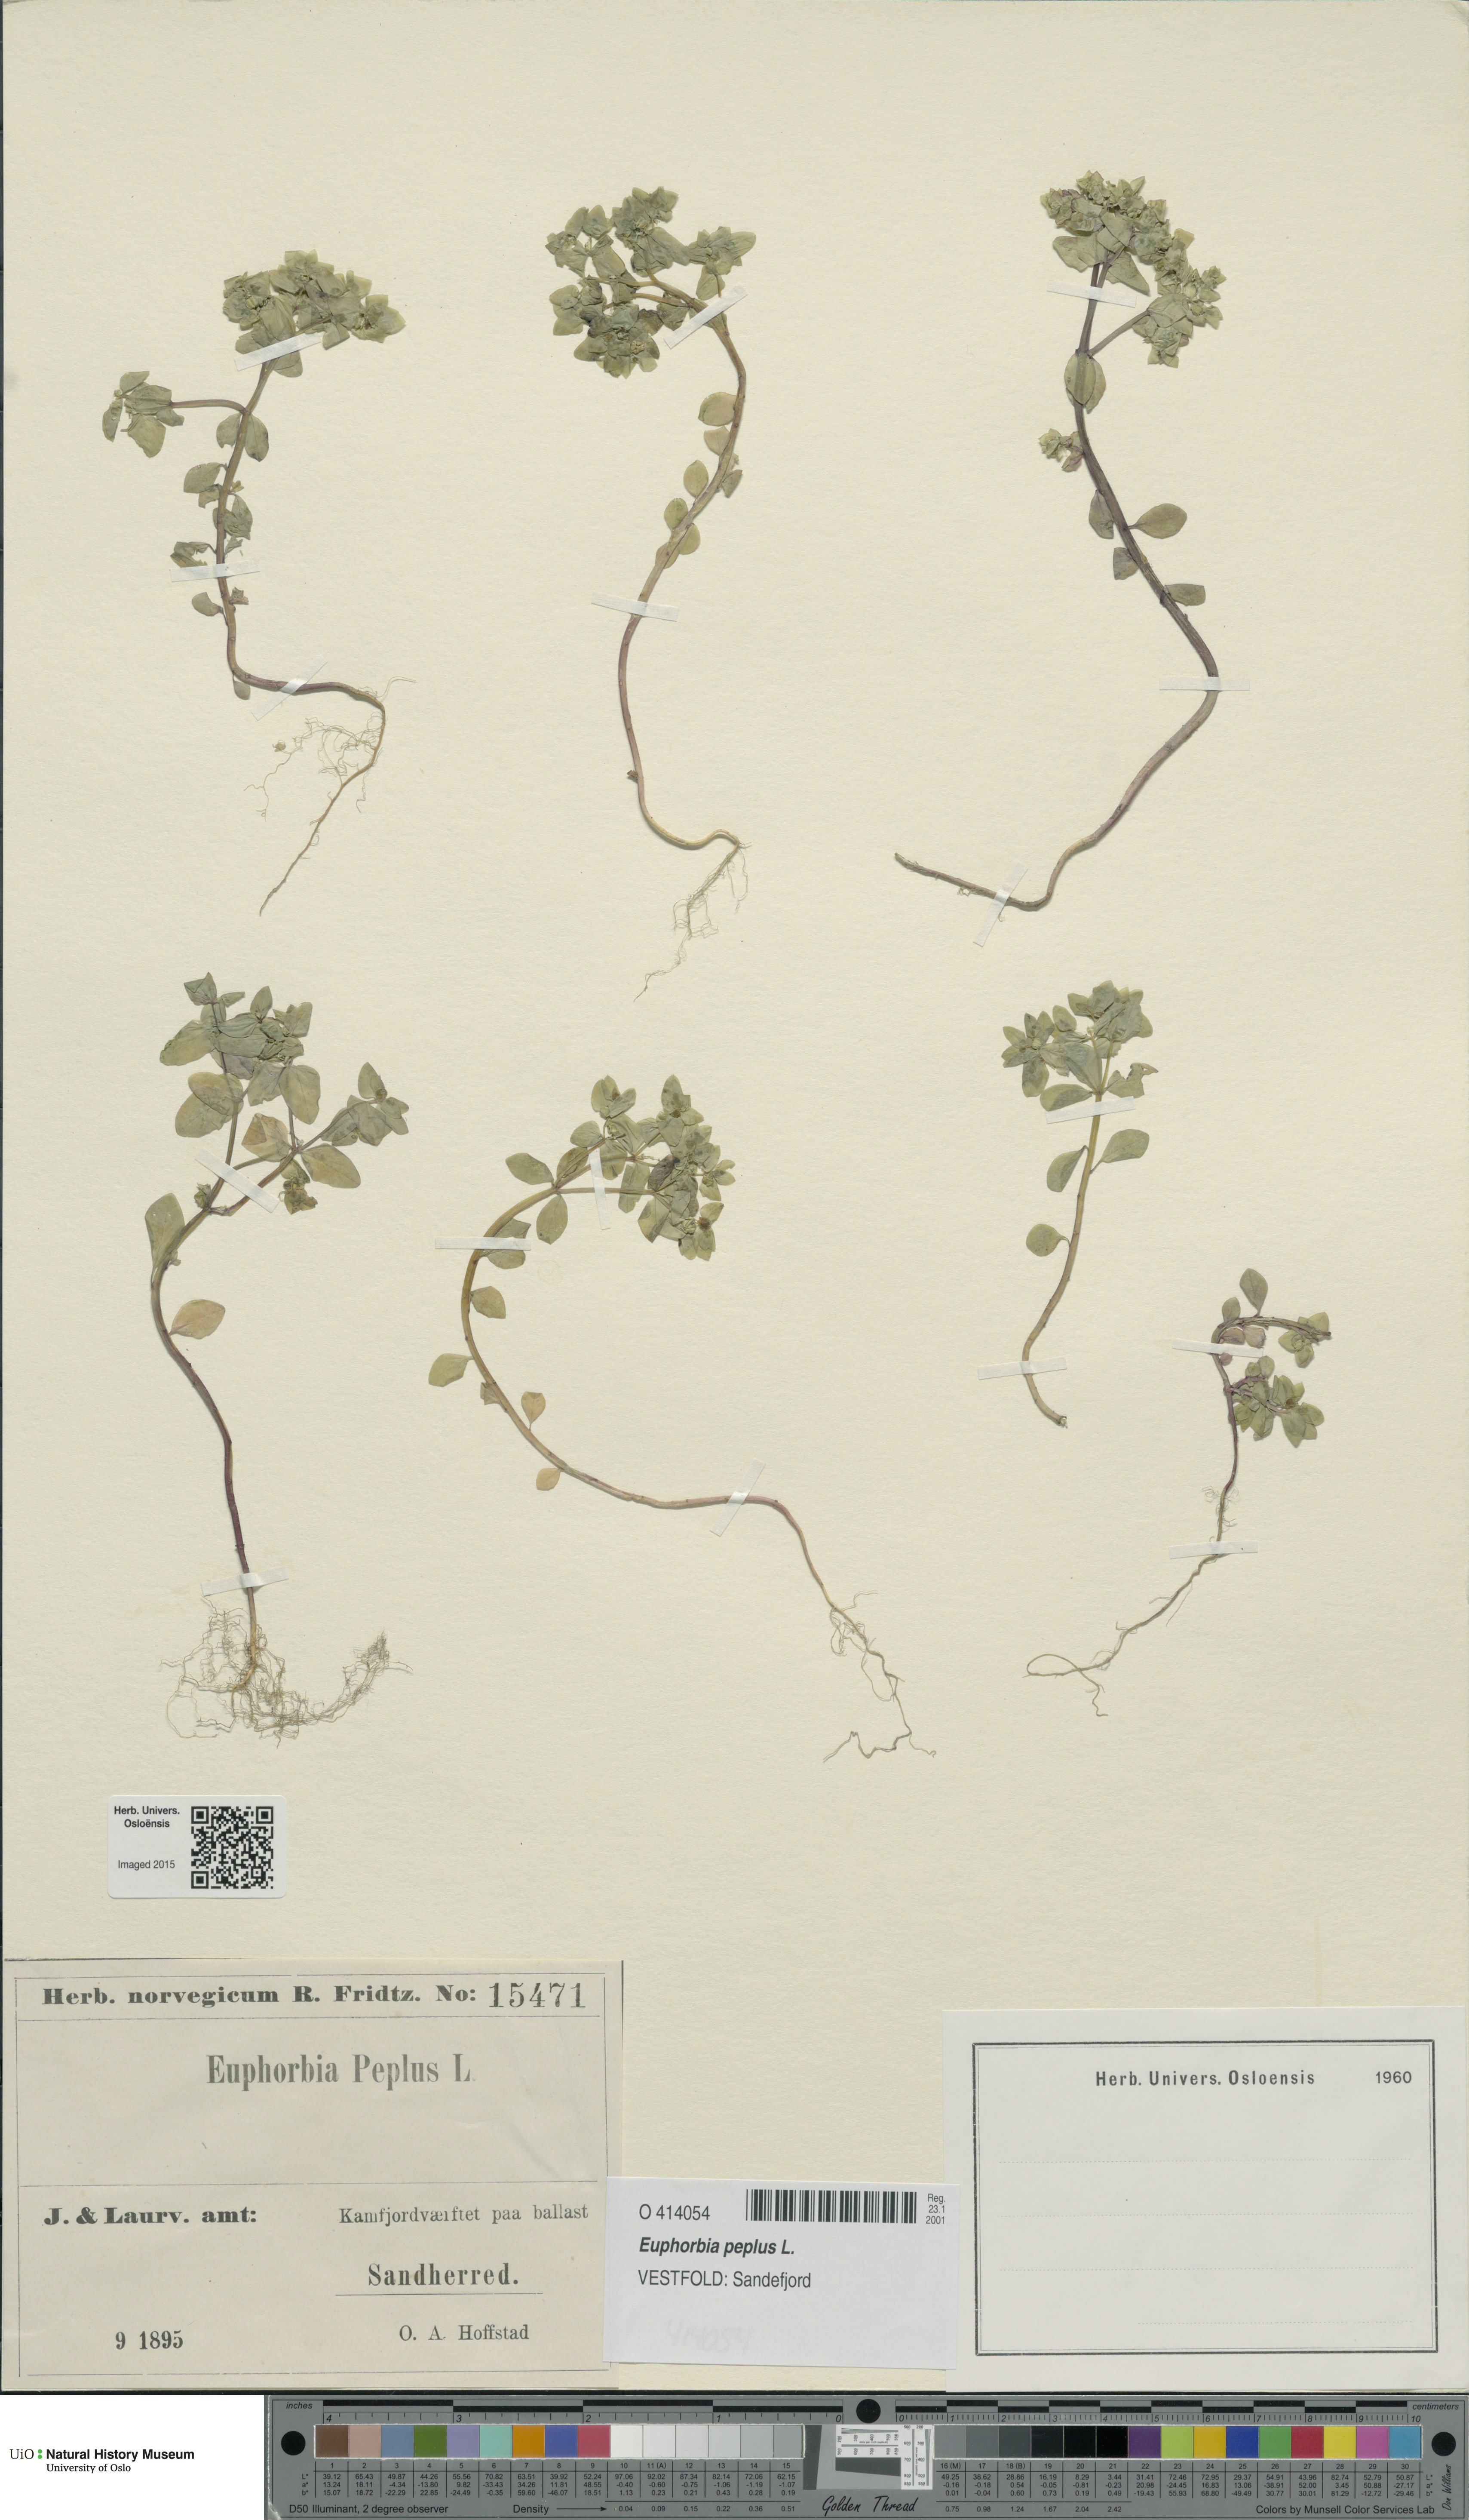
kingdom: Plantae
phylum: Tracheophyta
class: Magnoliopsida
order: Malpighiales
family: Euphorbiaceae
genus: Euphorbia
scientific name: Euphorbia peplus
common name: Petty spurge
